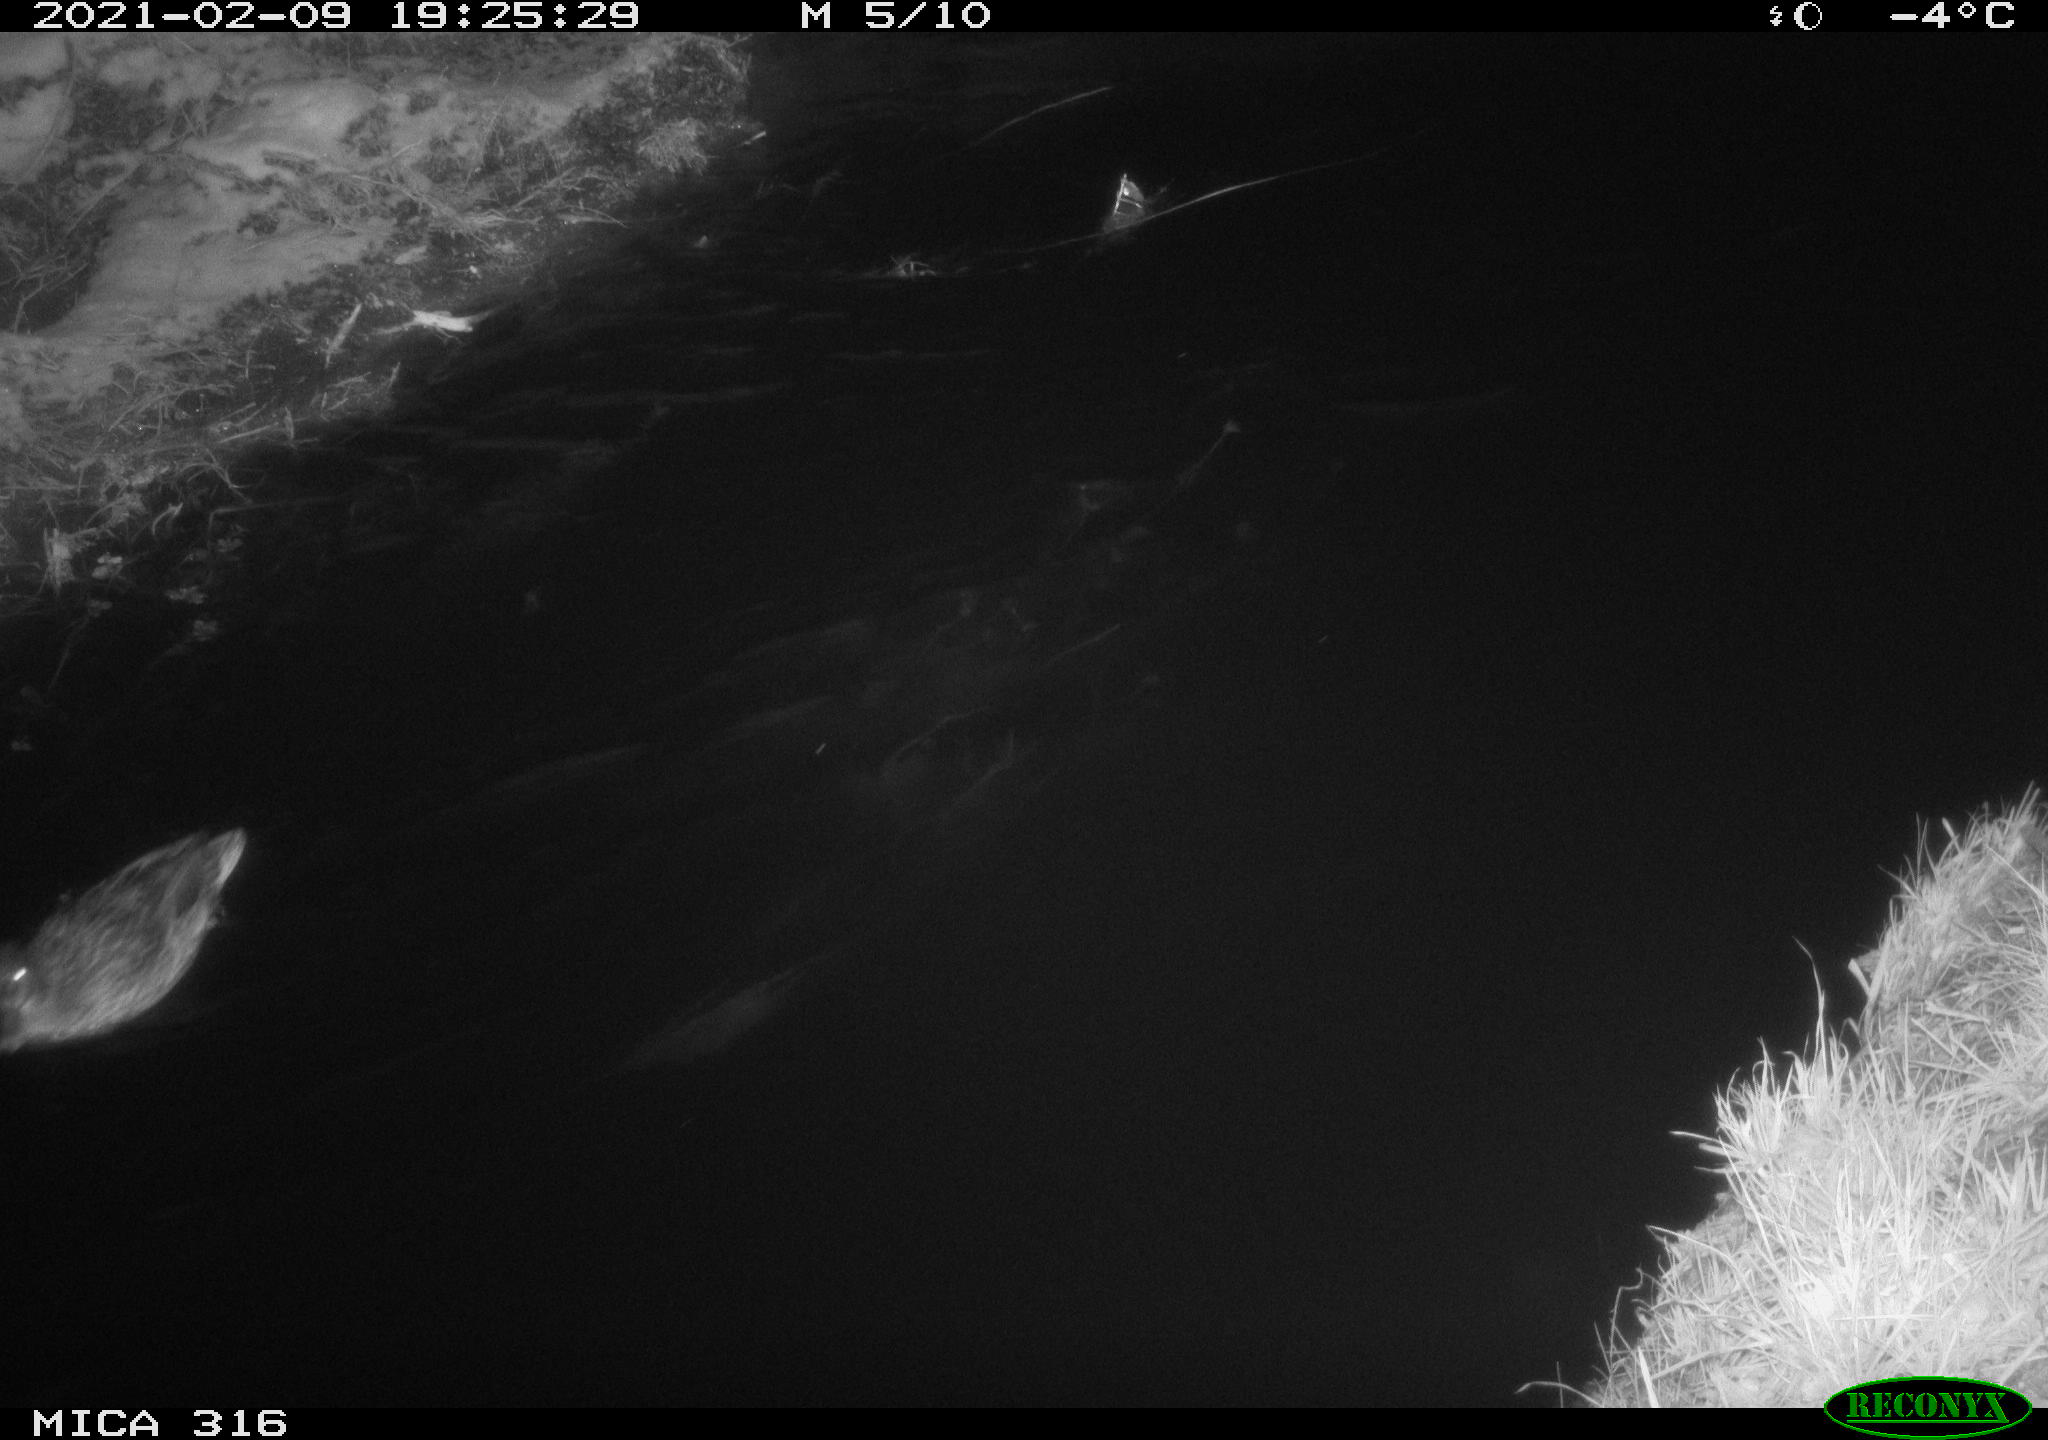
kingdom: Animalia
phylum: Chordata
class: Aves
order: Anseriformes
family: Anatidae
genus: Anas
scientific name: Anas platyrhynchos
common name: Mallard
